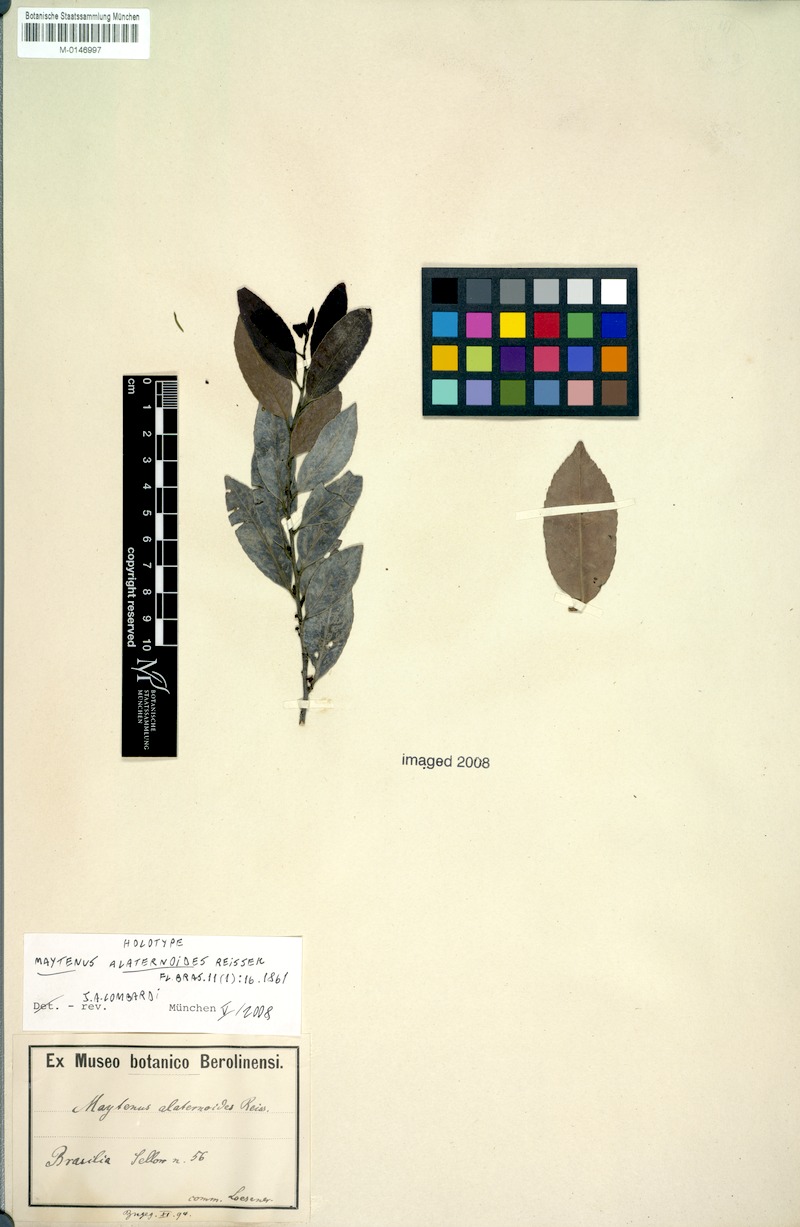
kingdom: Plantae
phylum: Tracheophyta
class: Magnoliopsida
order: Celastrales
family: Celastraceae
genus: Maytenus
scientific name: Maytenus alaternoides
